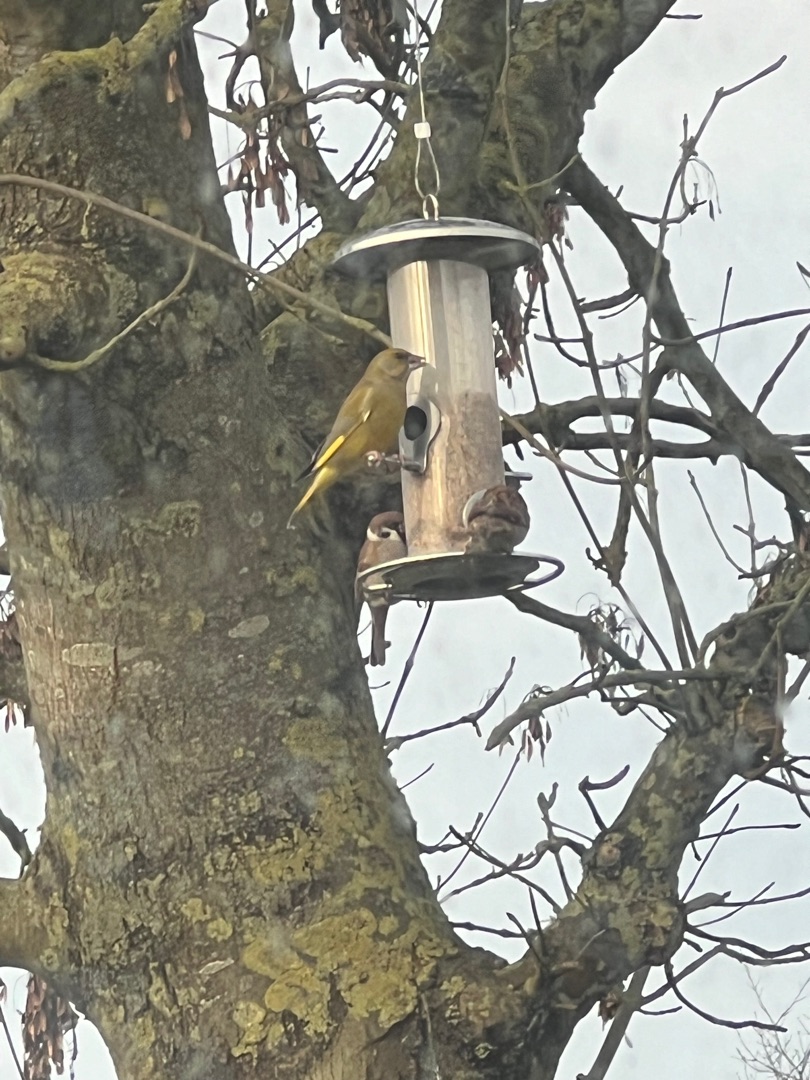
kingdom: Plantae
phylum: Tracheophyta
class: Liliopsida
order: Poales
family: Poaceae
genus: Chloris
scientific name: Chloris chloris
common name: Grønirisk
